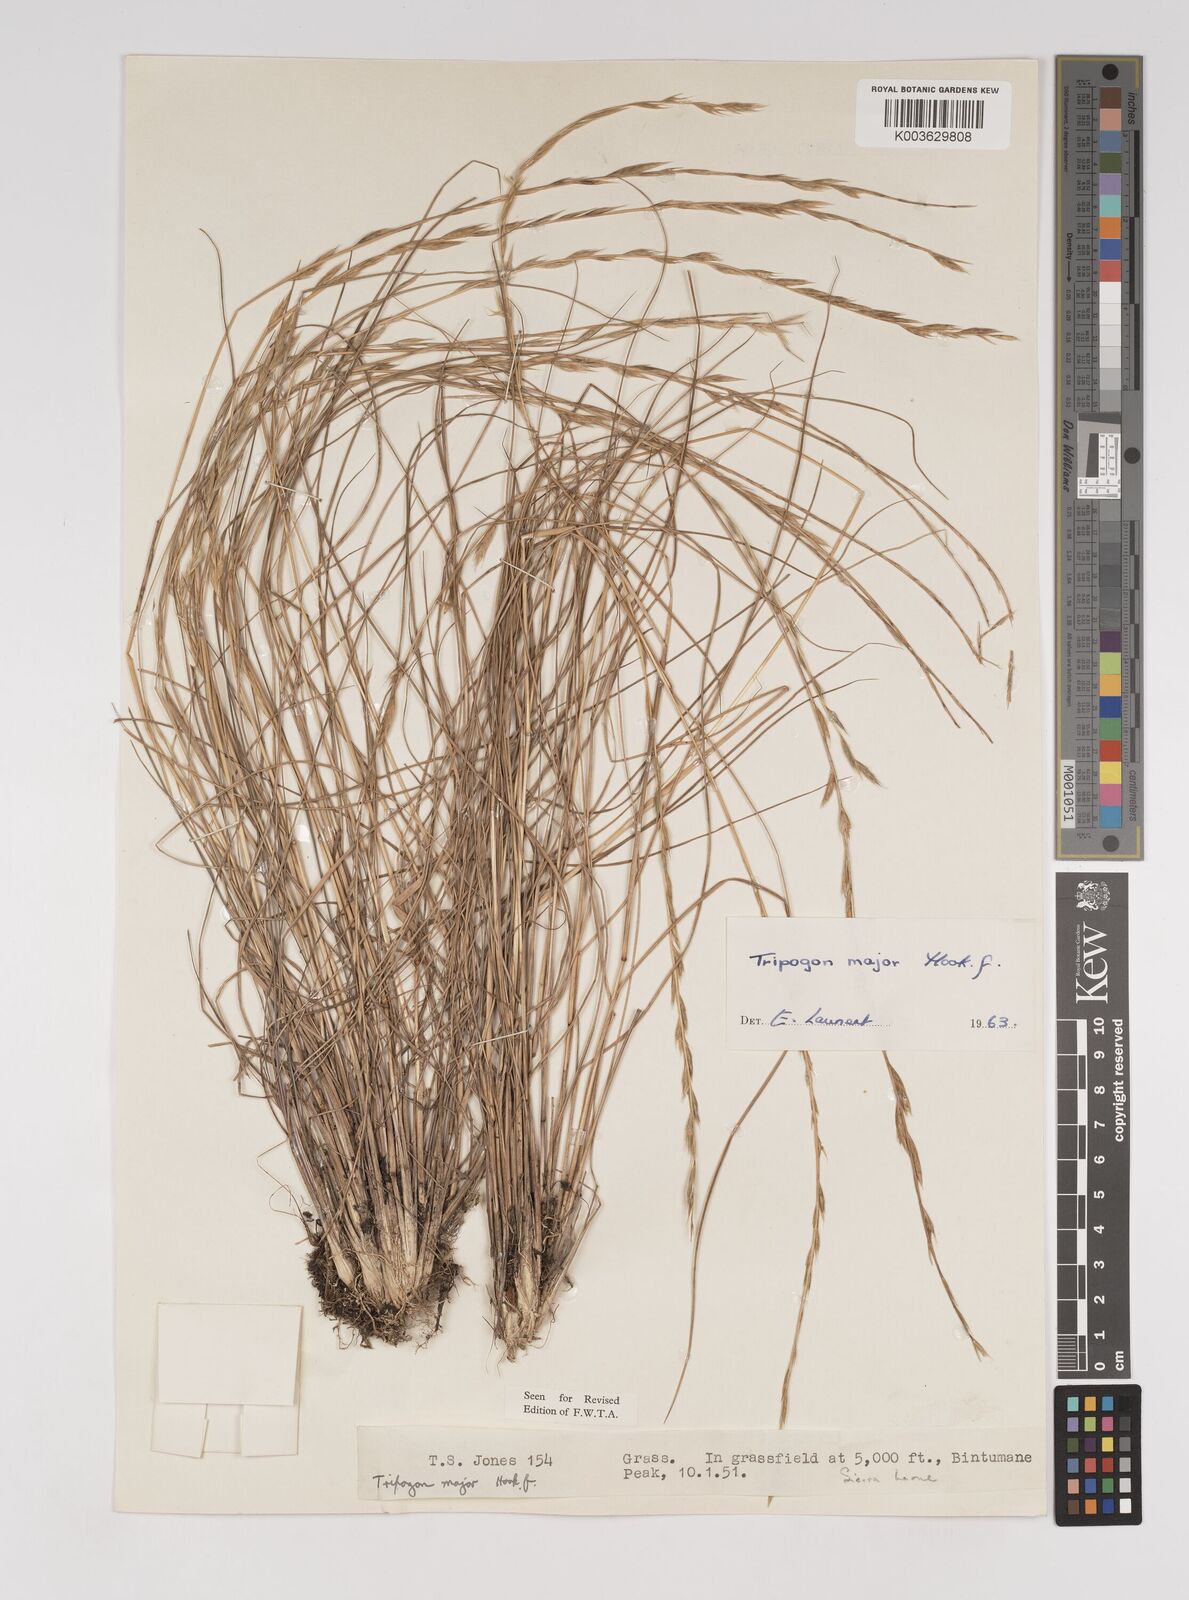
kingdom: Plantae
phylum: Tracheophyta
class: Liliopsida
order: Poales
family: Poaceae
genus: Tripogon
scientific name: Tripogon major
